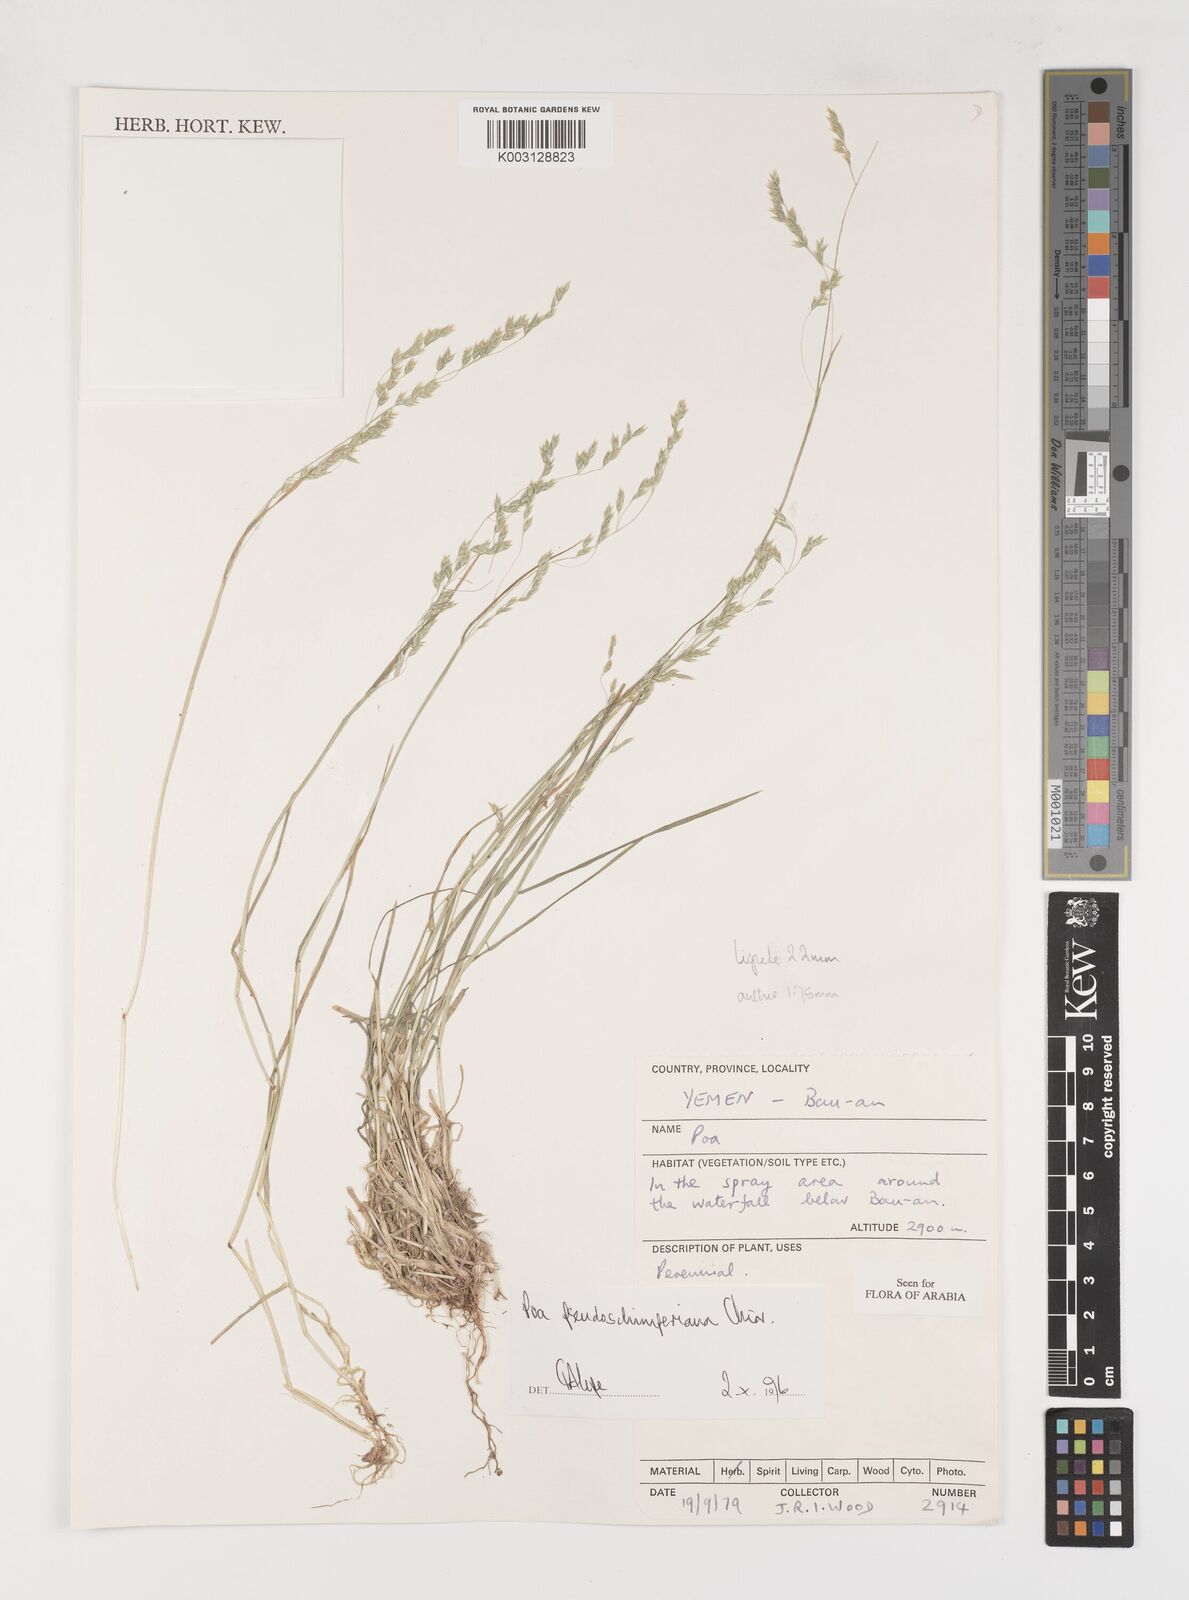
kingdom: Plantae
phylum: Tracheophyta
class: Liliopsida
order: Poales
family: Poaceae
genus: Poa
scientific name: Poa pseudoschimperiana
